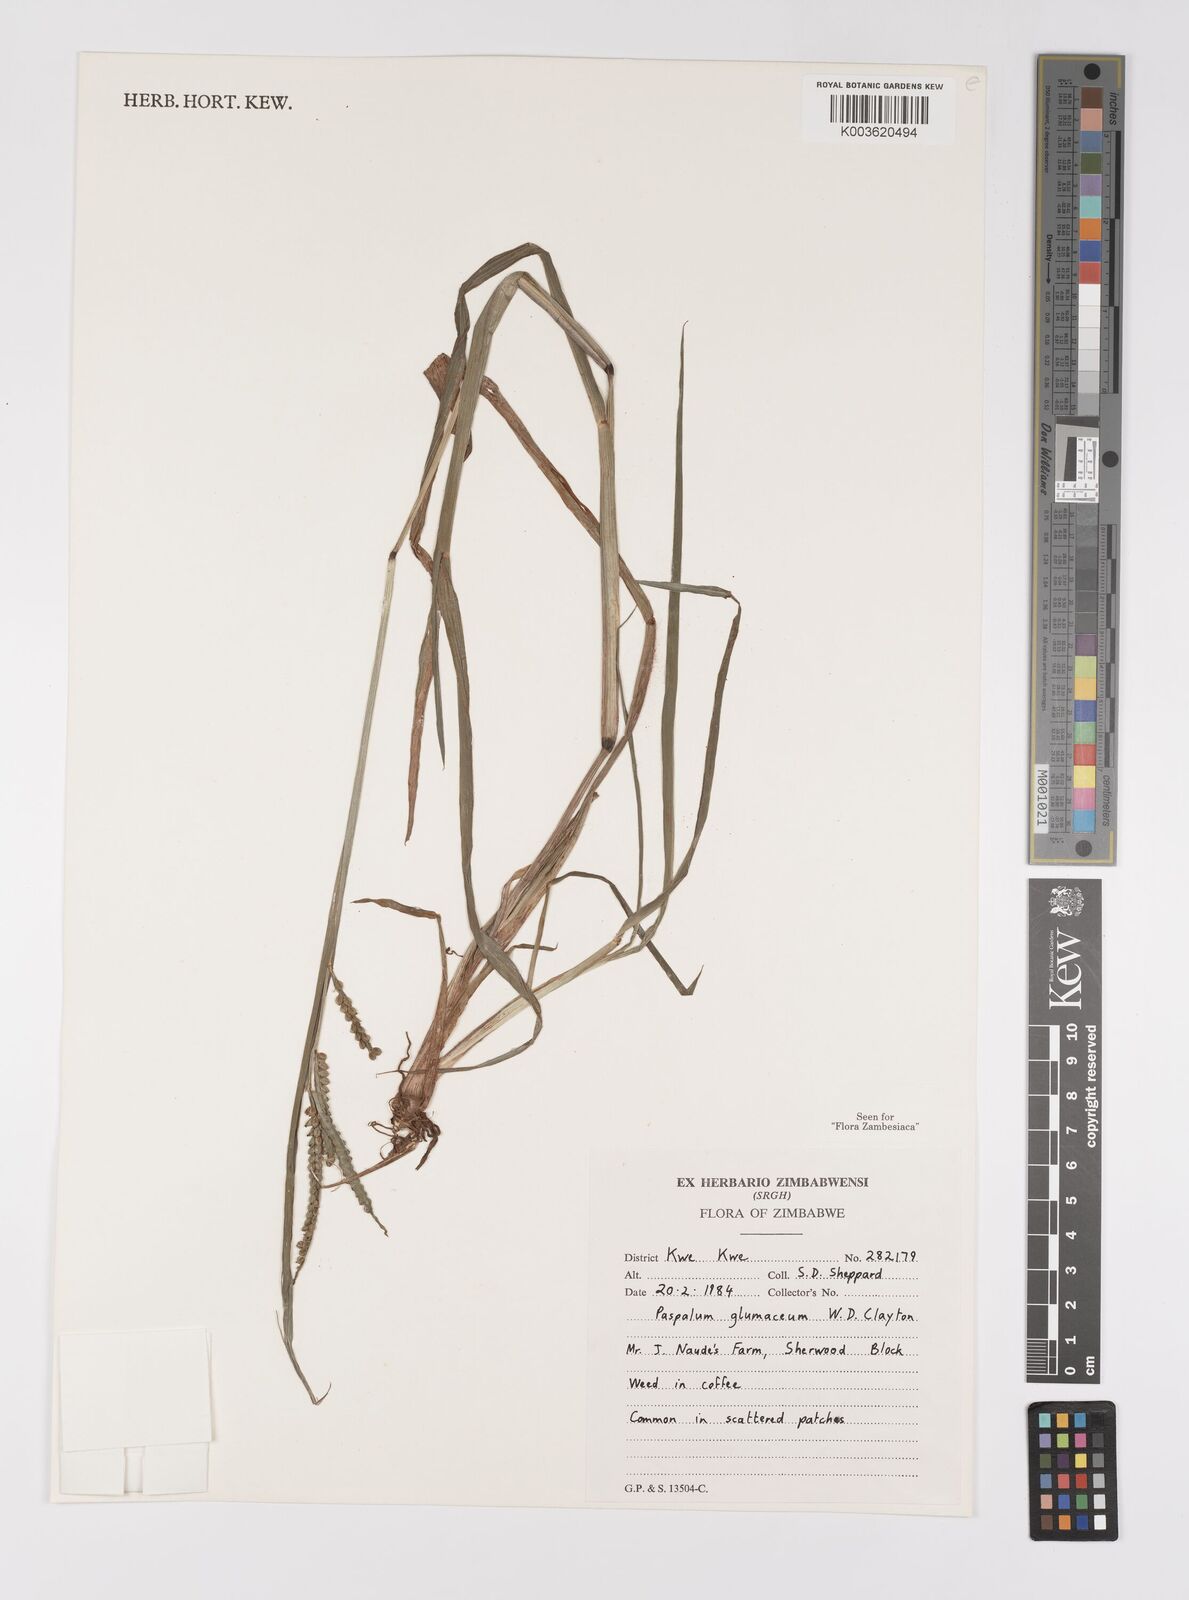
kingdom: Plantae
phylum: Tracheophyta
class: Liliopsida
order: Poales
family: Poaceae
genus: Paspalum
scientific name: Paspalum glumaceum
